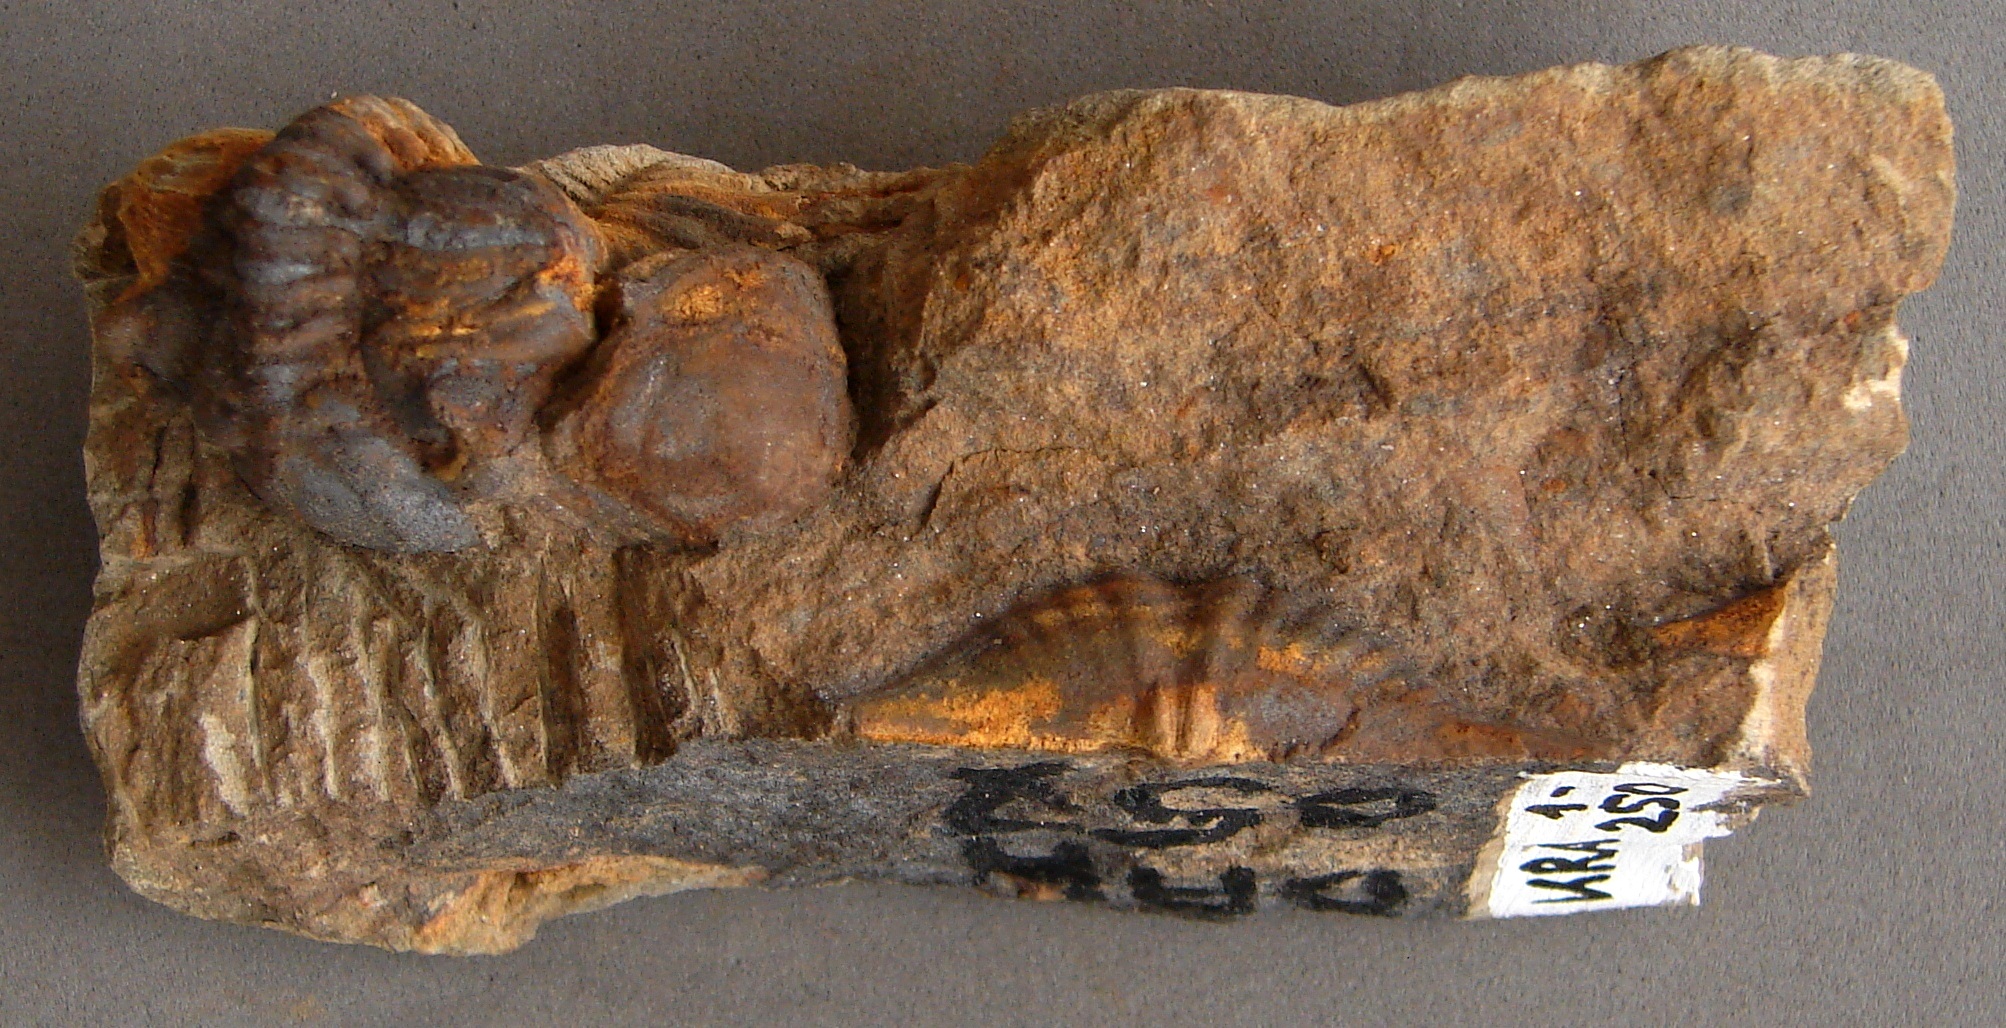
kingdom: Animalia
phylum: Arthropoda
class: Trilobita
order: Phacopida
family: Acastidae
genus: Tolkienia
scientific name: Tolkienia wiltzensis
